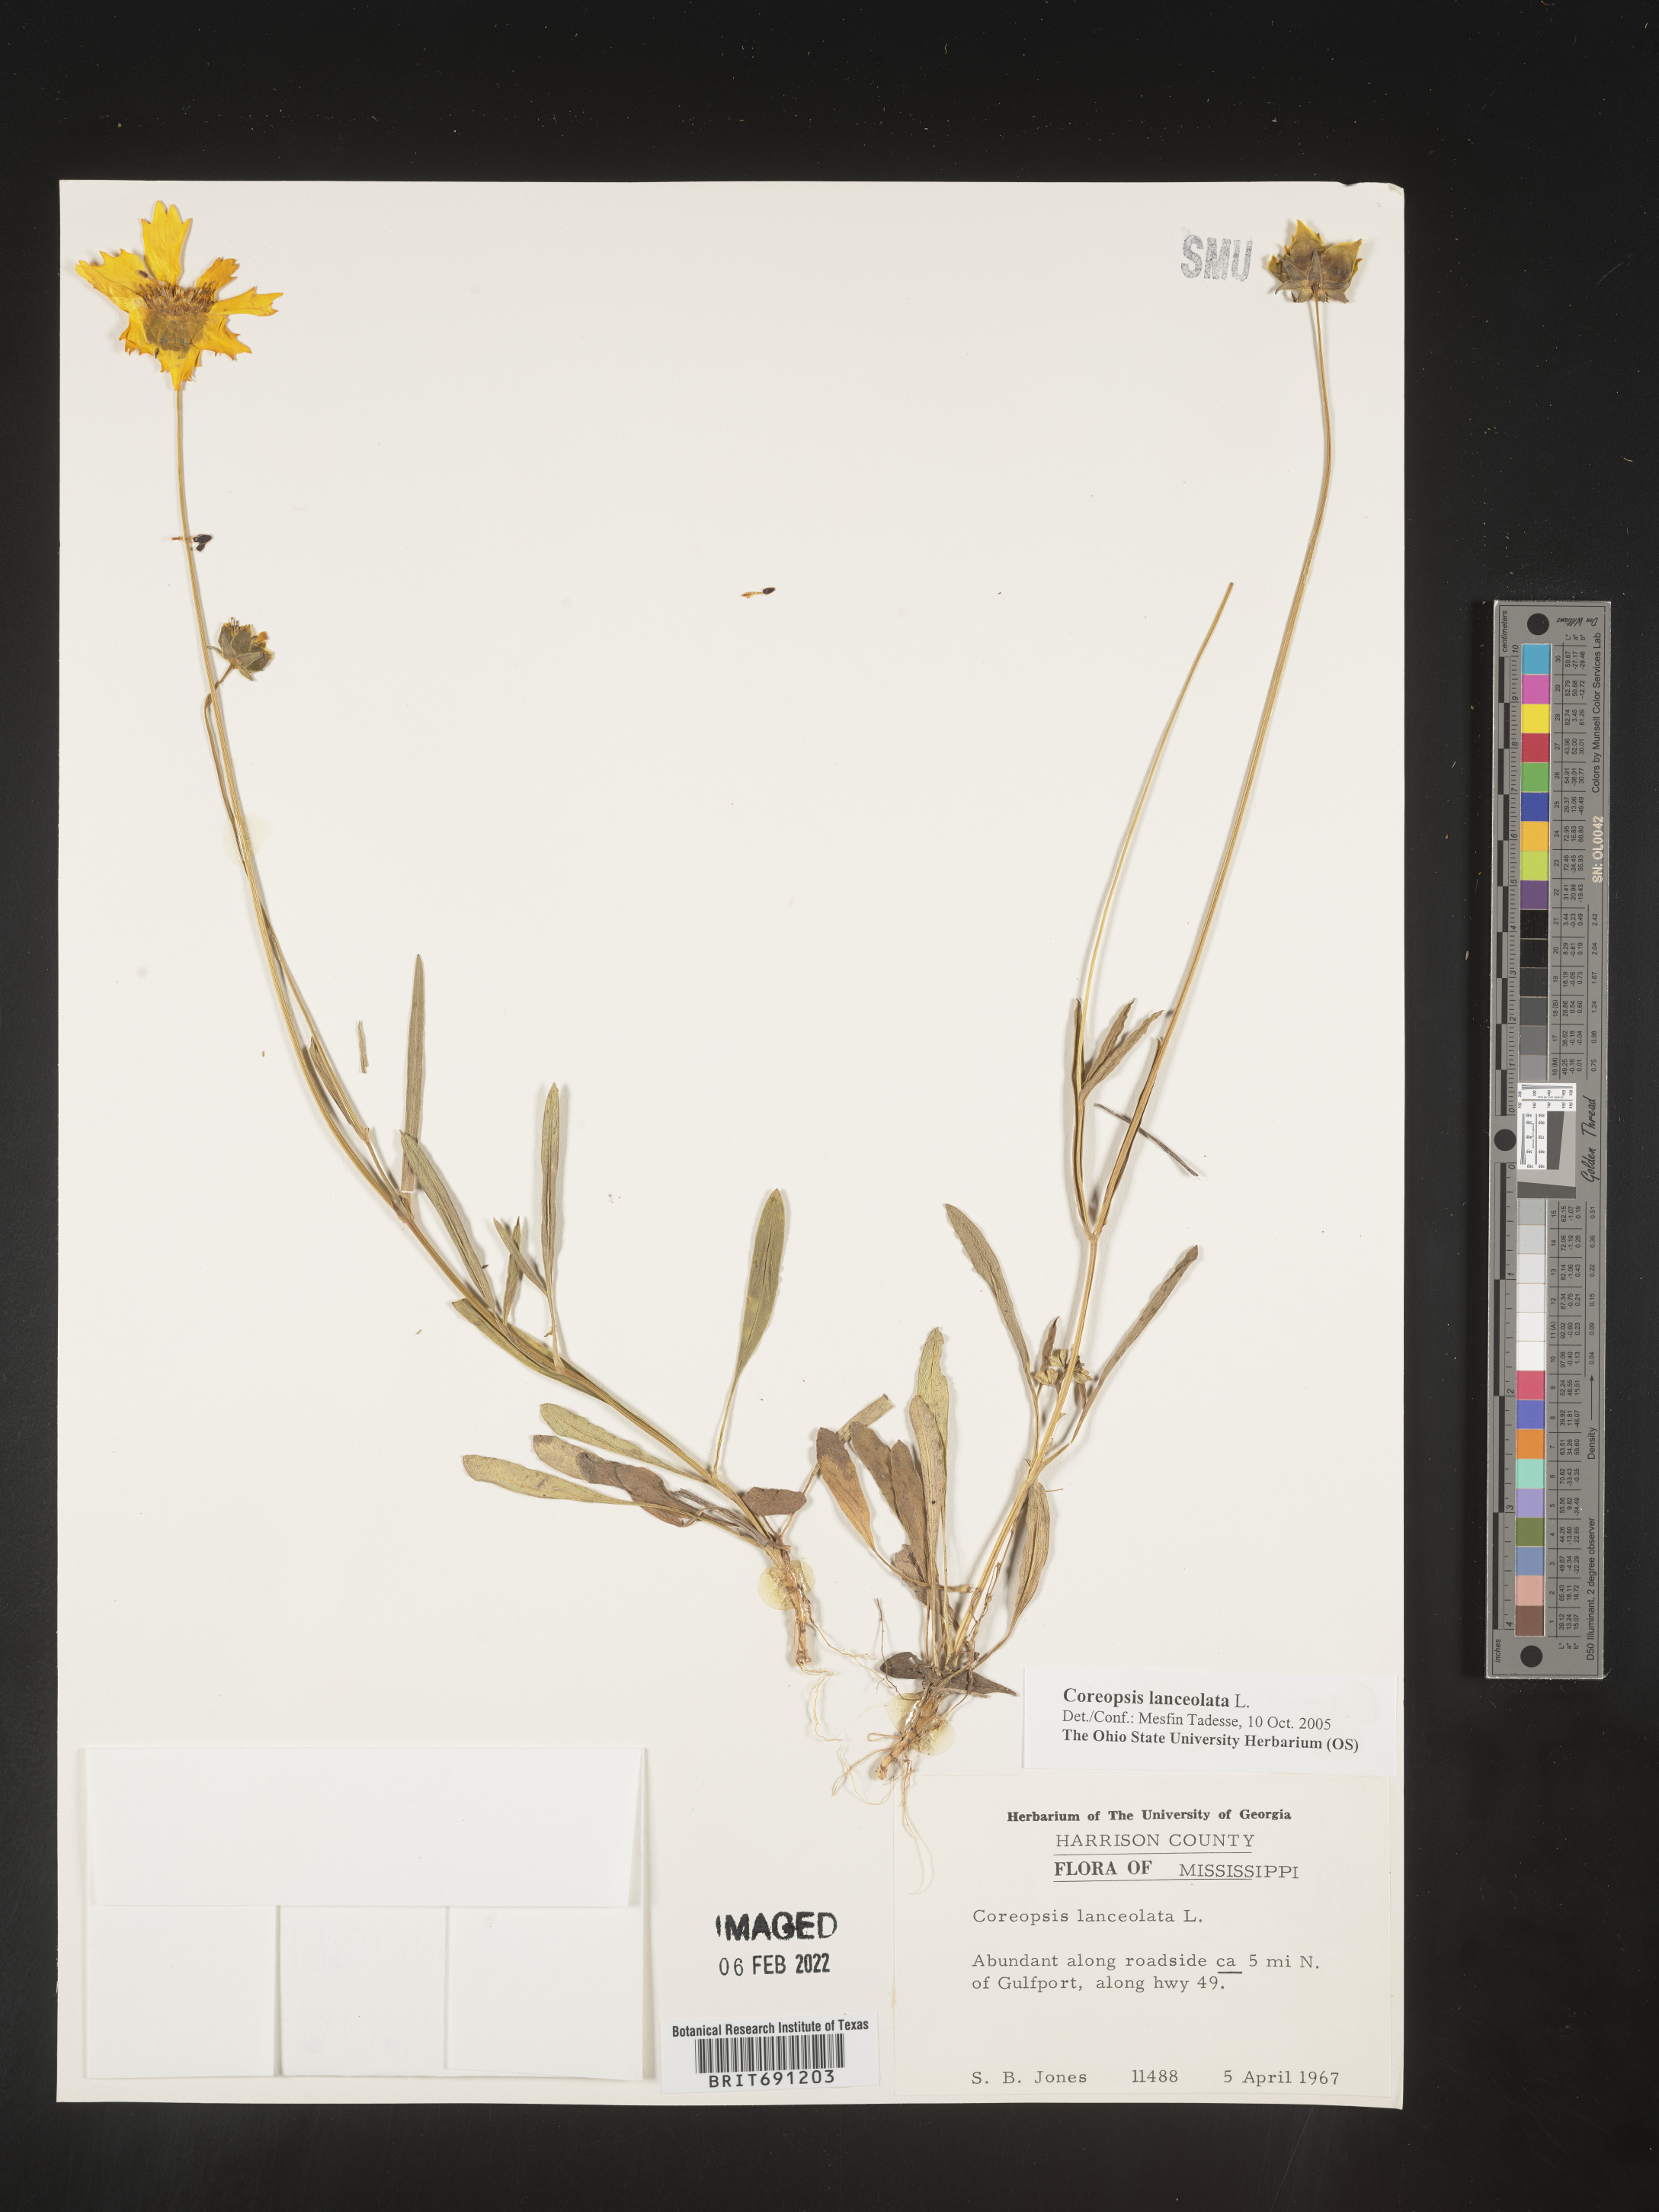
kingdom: Plantae
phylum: Tracheophyta
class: Magnoliopsida
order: Asterales
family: Asteraceae
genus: Coreopsis
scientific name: Coreopsis lanceolata
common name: Garden coreopsis
